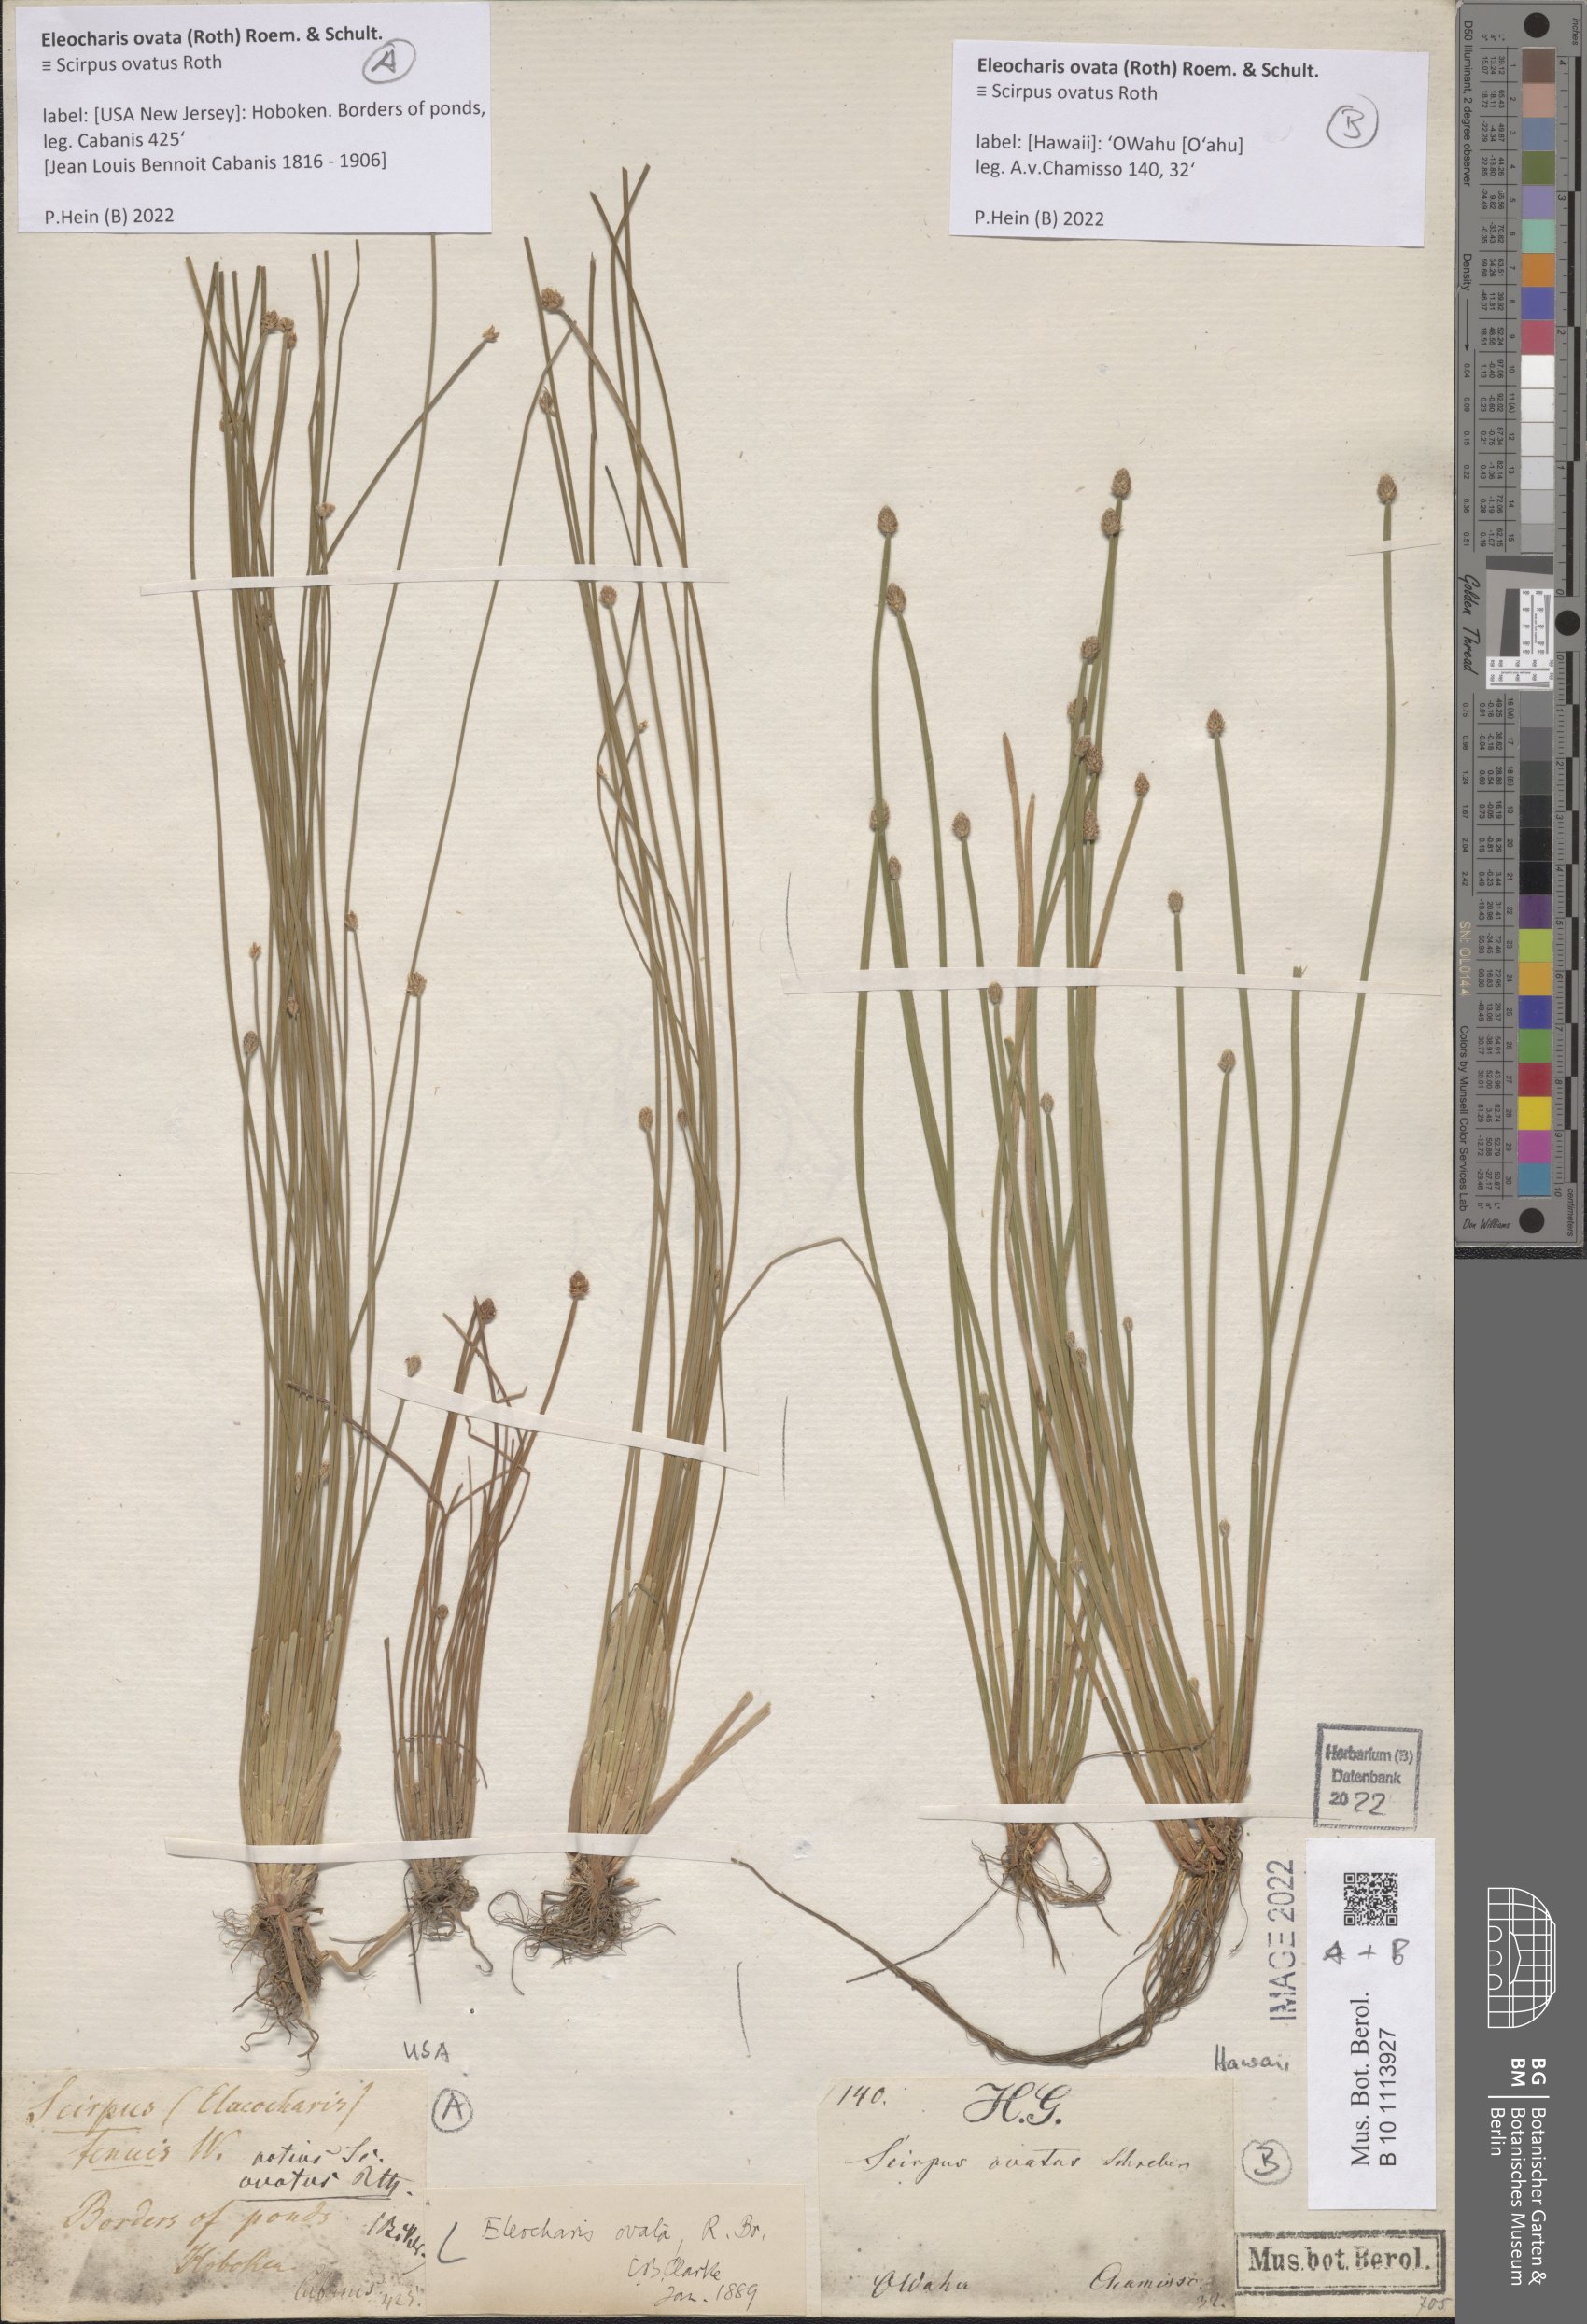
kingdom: Plantae
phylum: Tracheophyta
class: Liliopsida
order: Poales
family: Cyperaceae
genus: Eleocharis
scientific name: Eleocharis ovata
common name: Oval spike-rush
